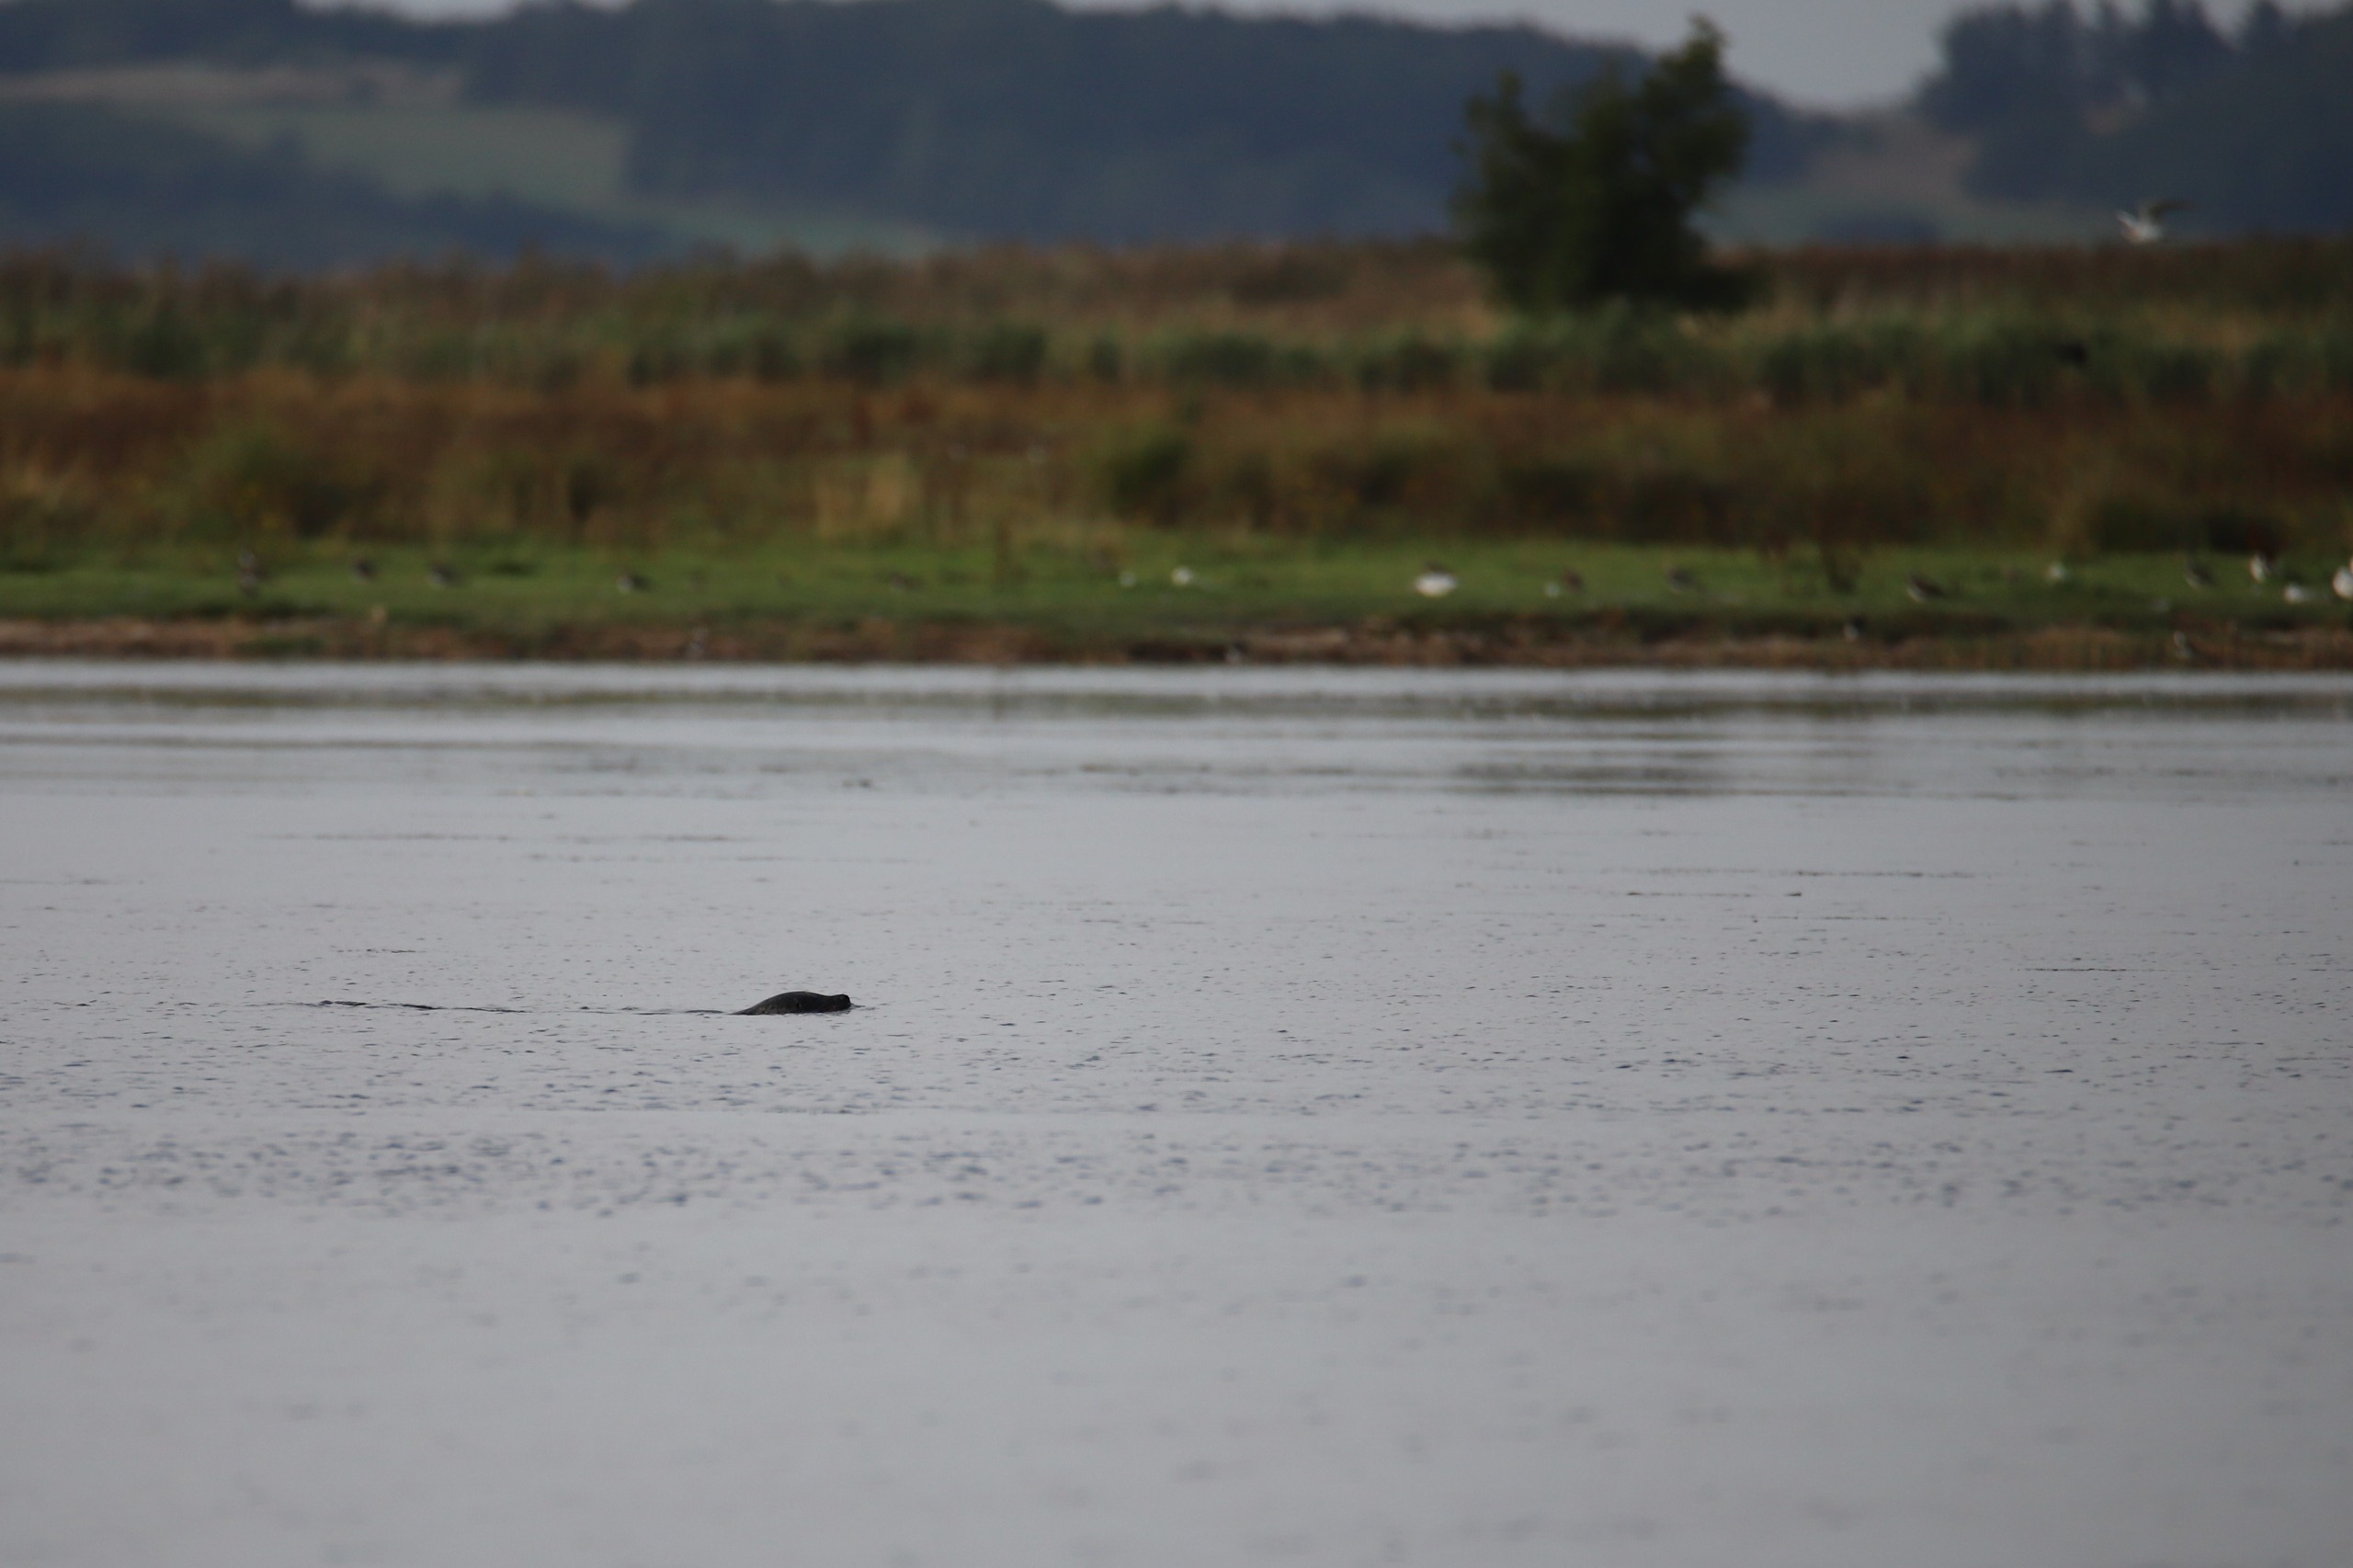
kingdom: Animalia
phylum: Chordata
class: Mammalia
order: Carnivora
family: Phocidae
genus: Phoca
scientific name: Phoca vitulina
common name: Spættet sæl
